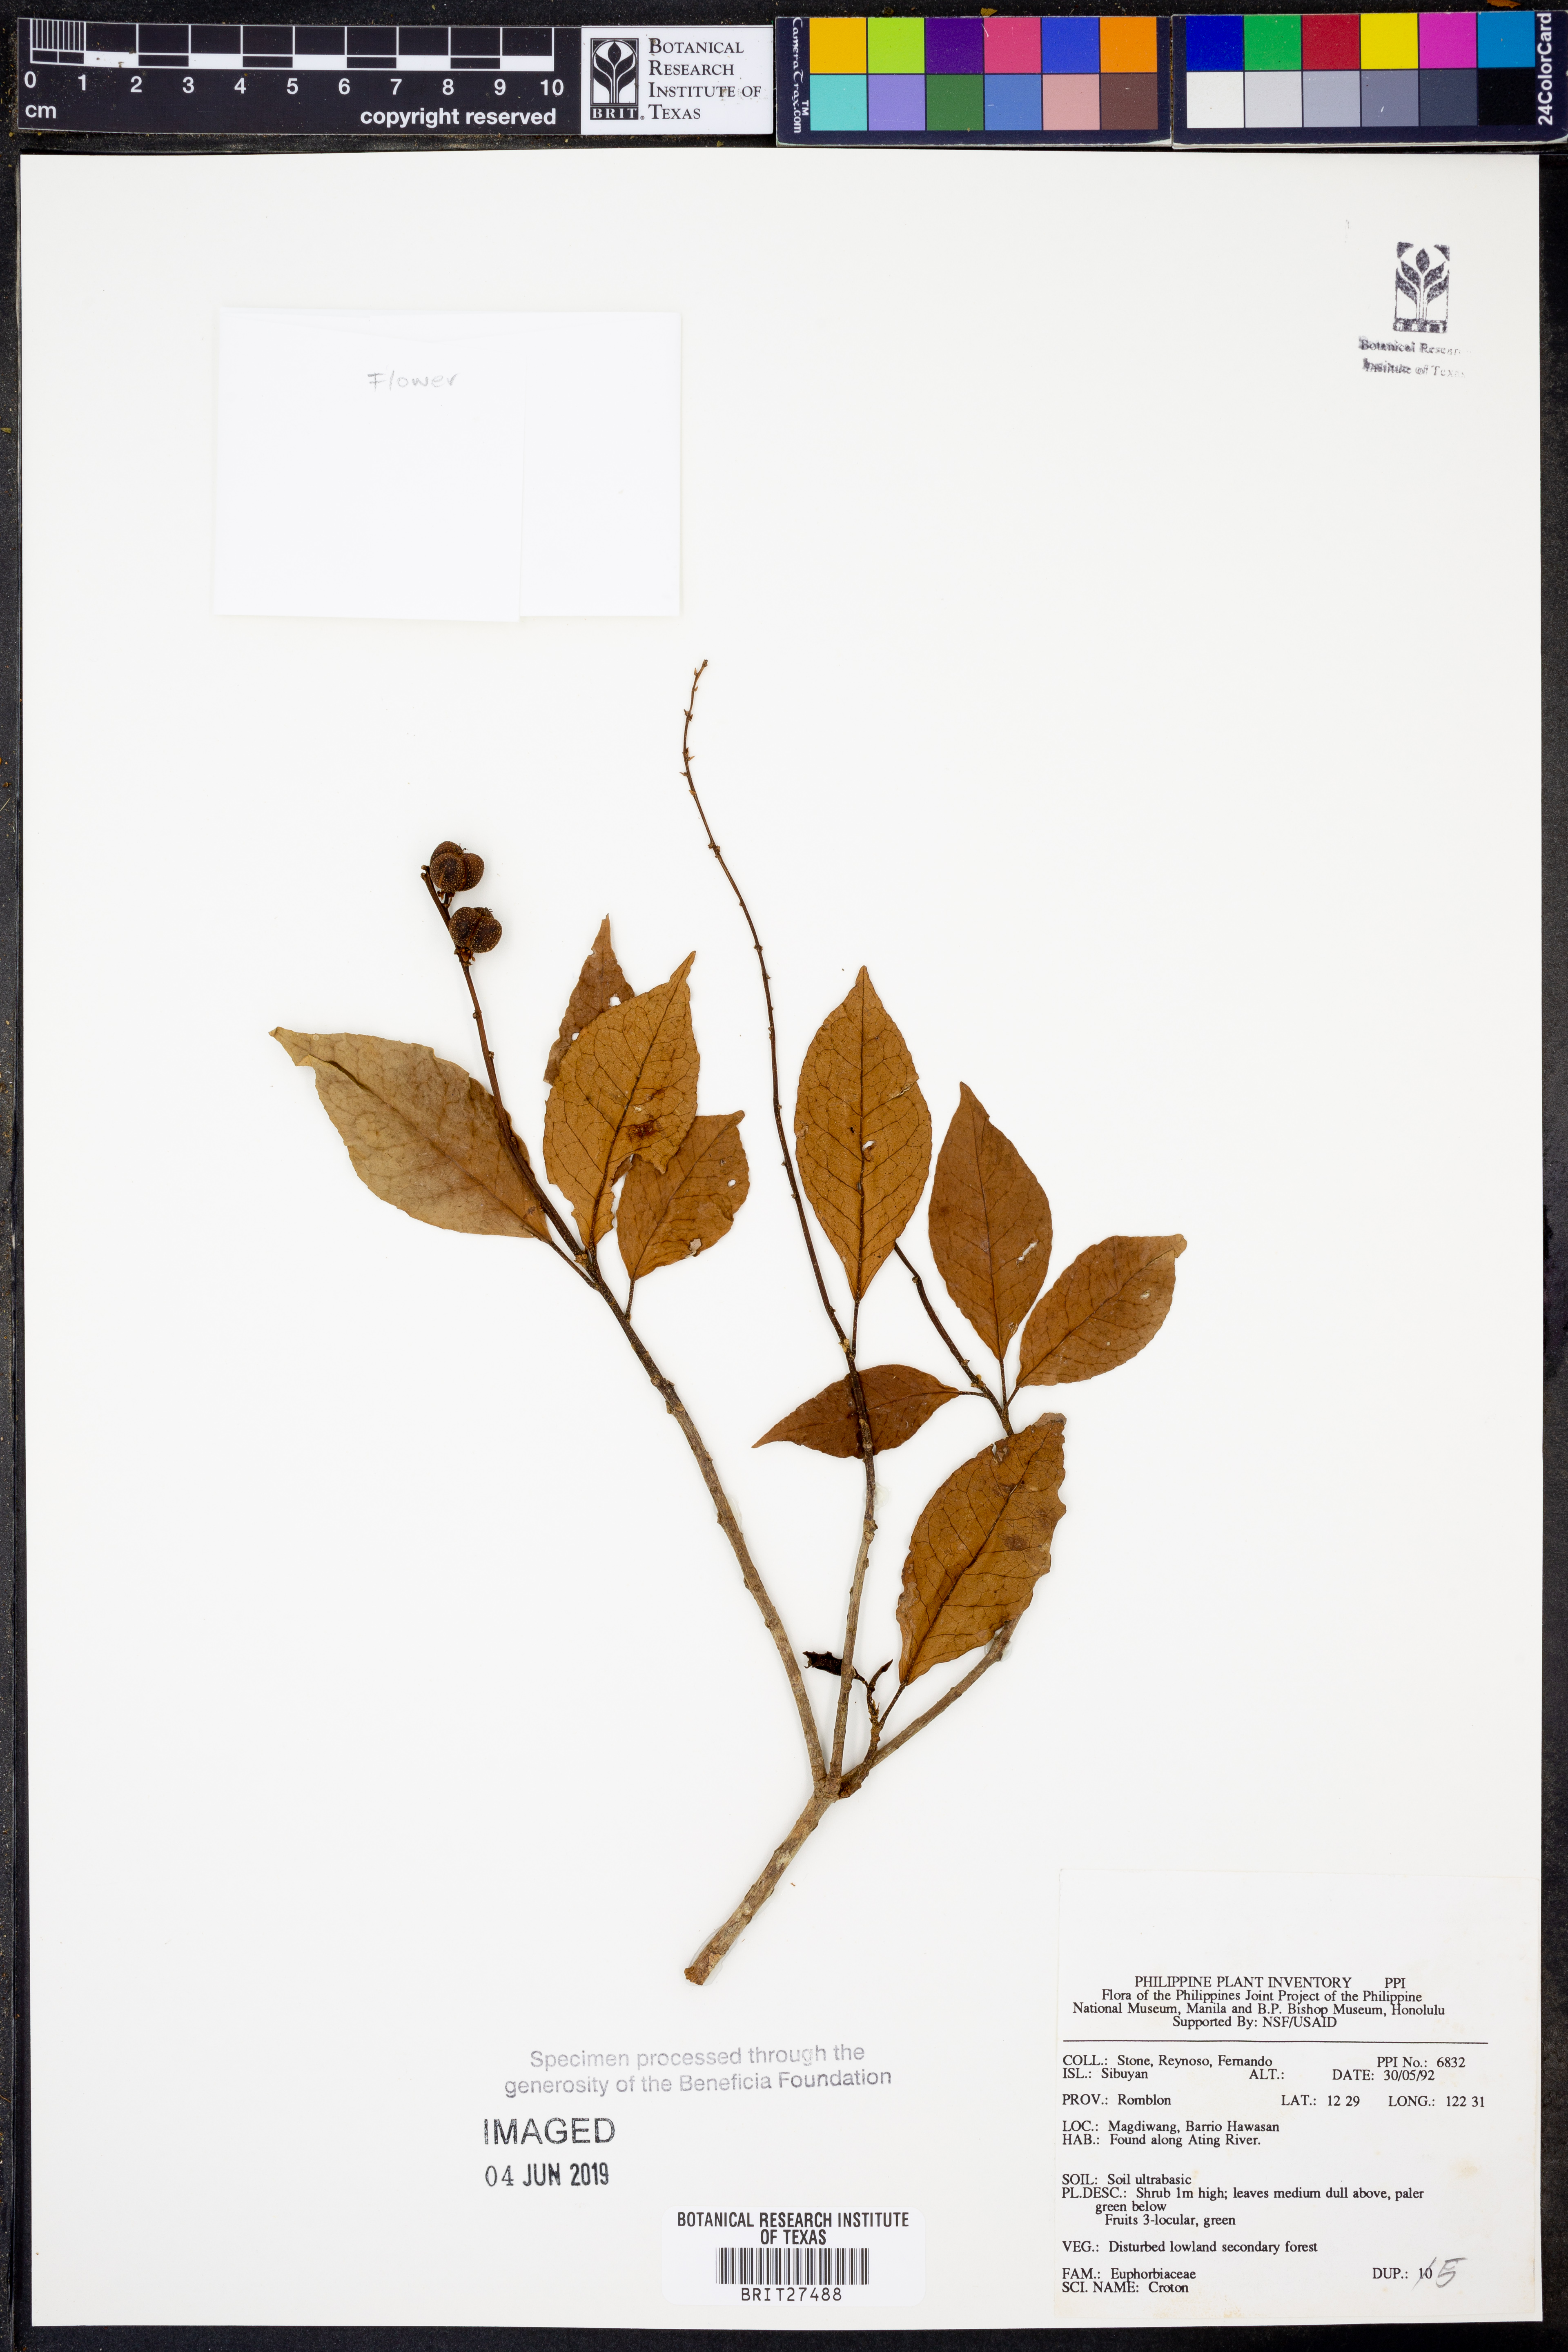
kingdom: Plantae
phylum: Tracheophyta
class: Magnoliopsida
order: Malpighiales
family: Euphorbiaceae
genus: Croton
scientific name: Croton
